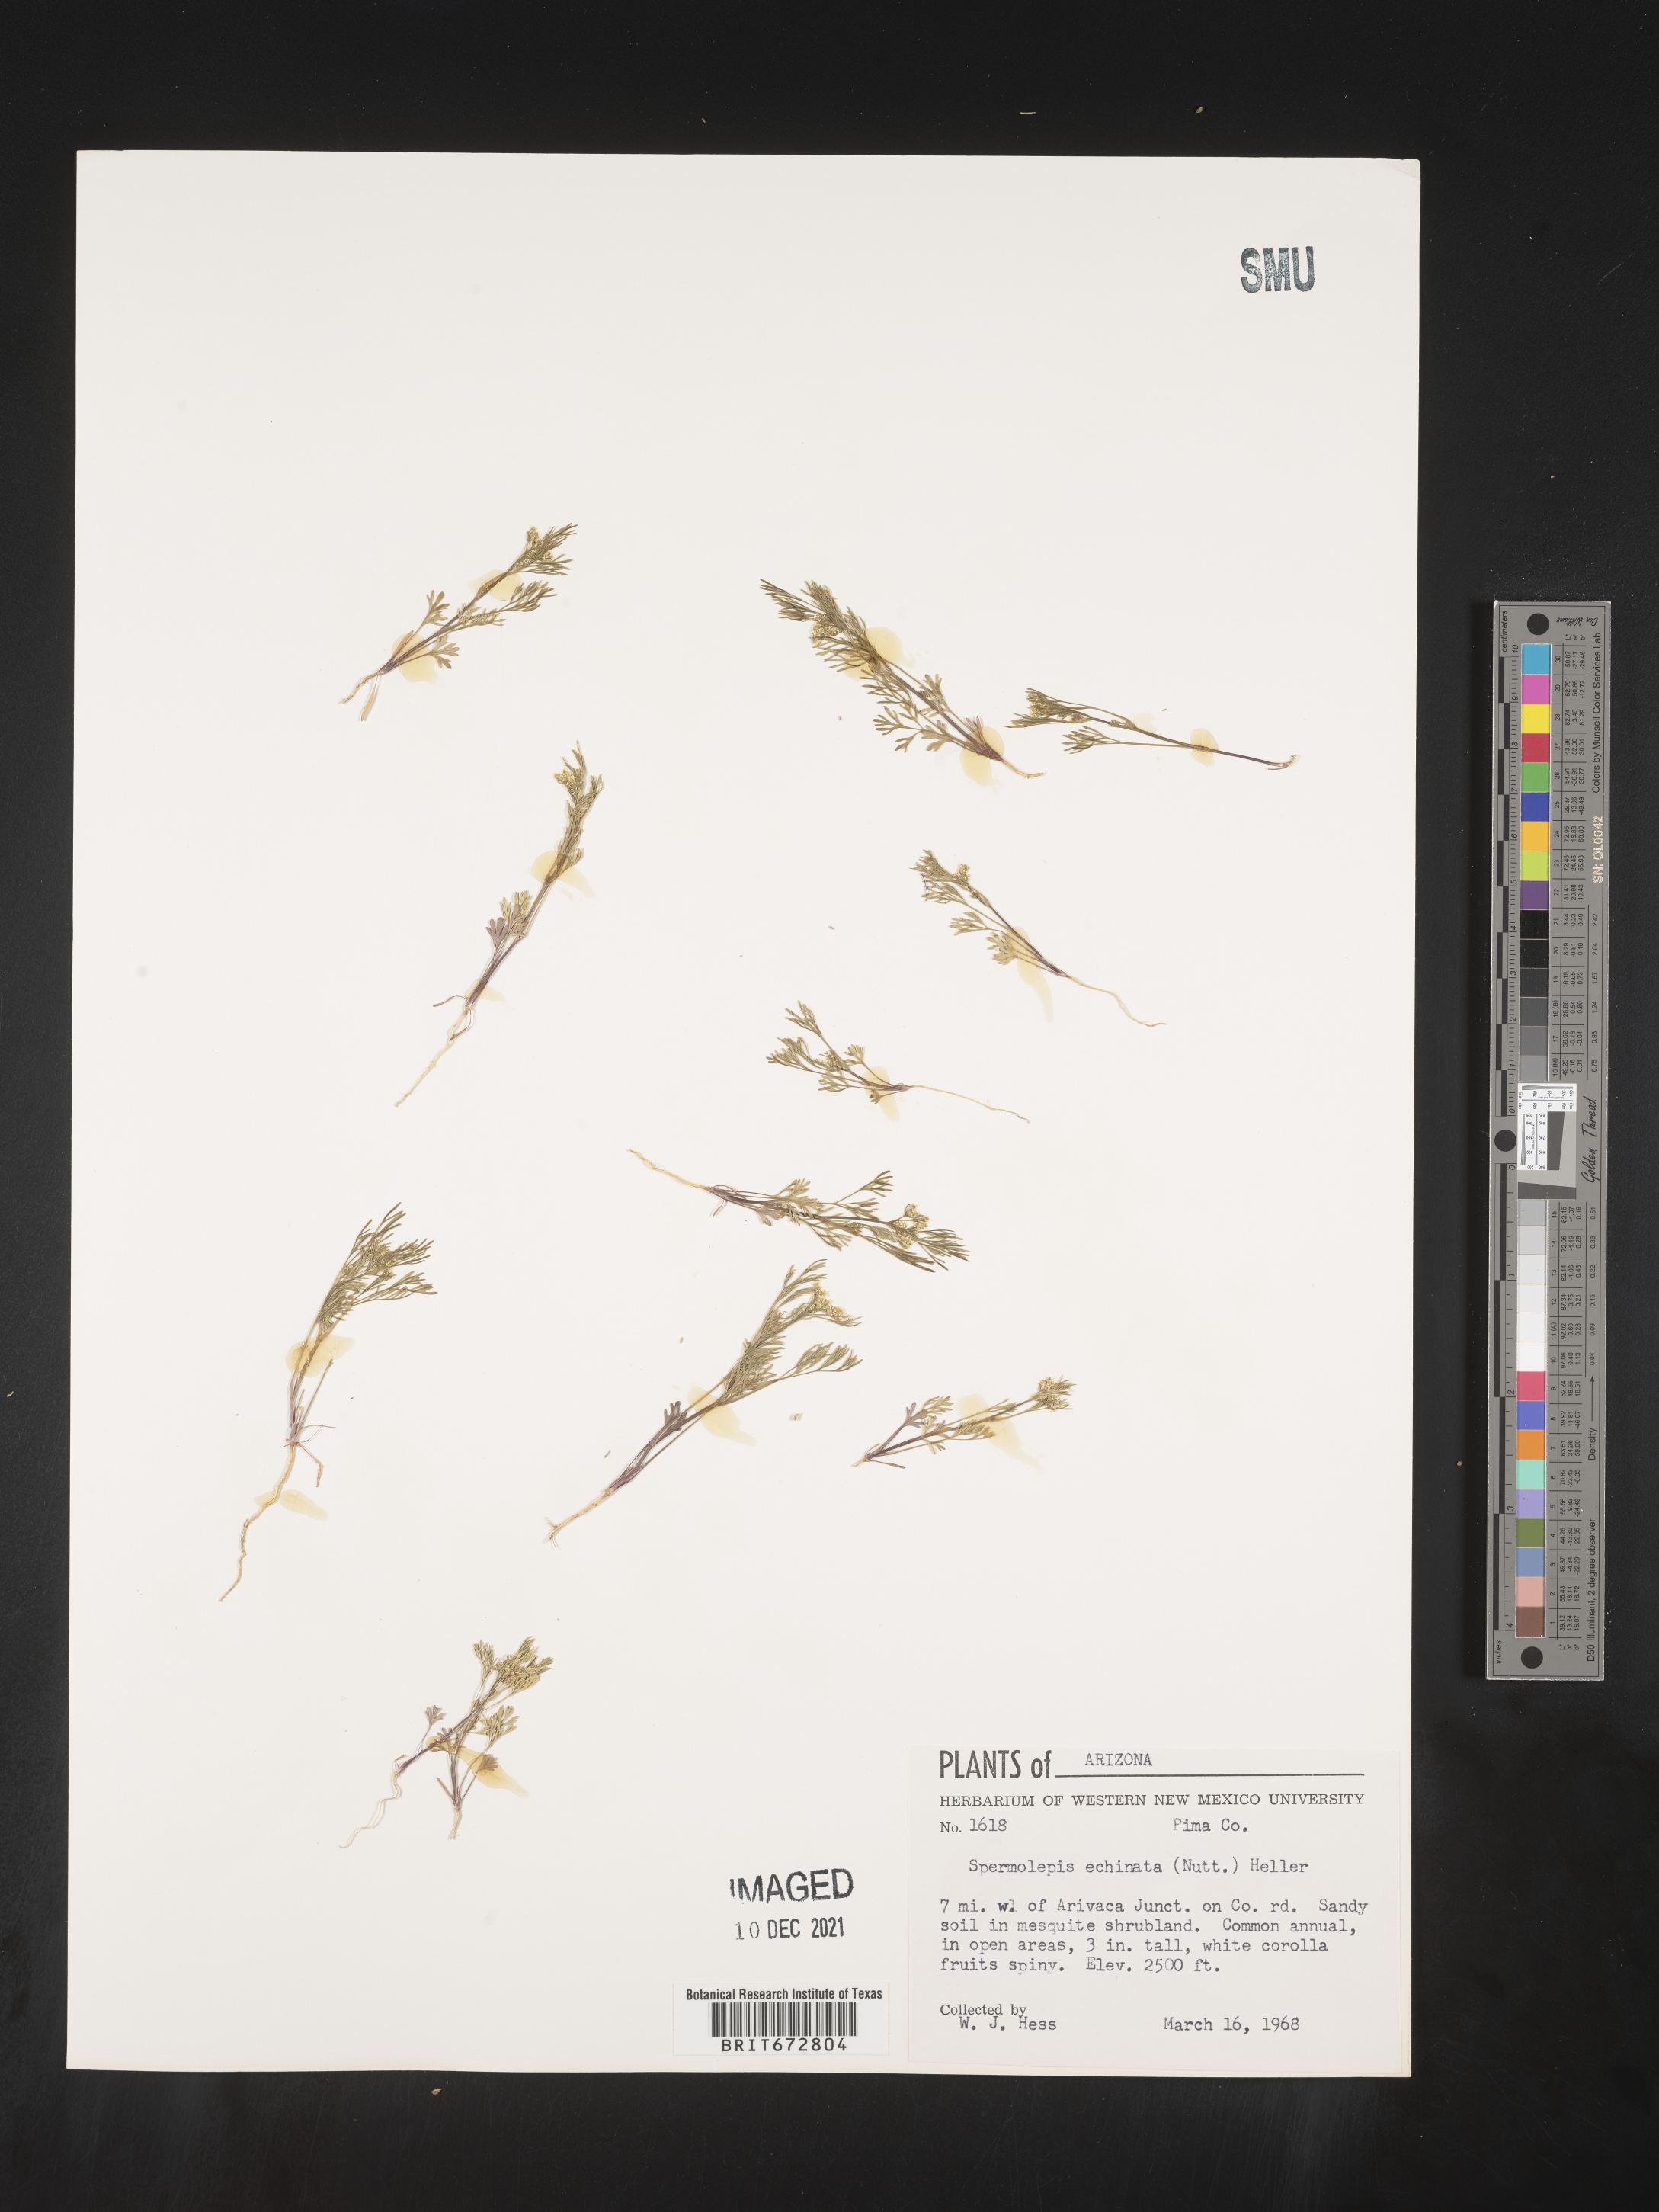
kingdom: Plantae
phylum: Tracheophyta
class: Magnoliopsida
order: Apiales
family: Apiaceae
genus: Spermolepis
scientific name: Spermolepis echinatus
